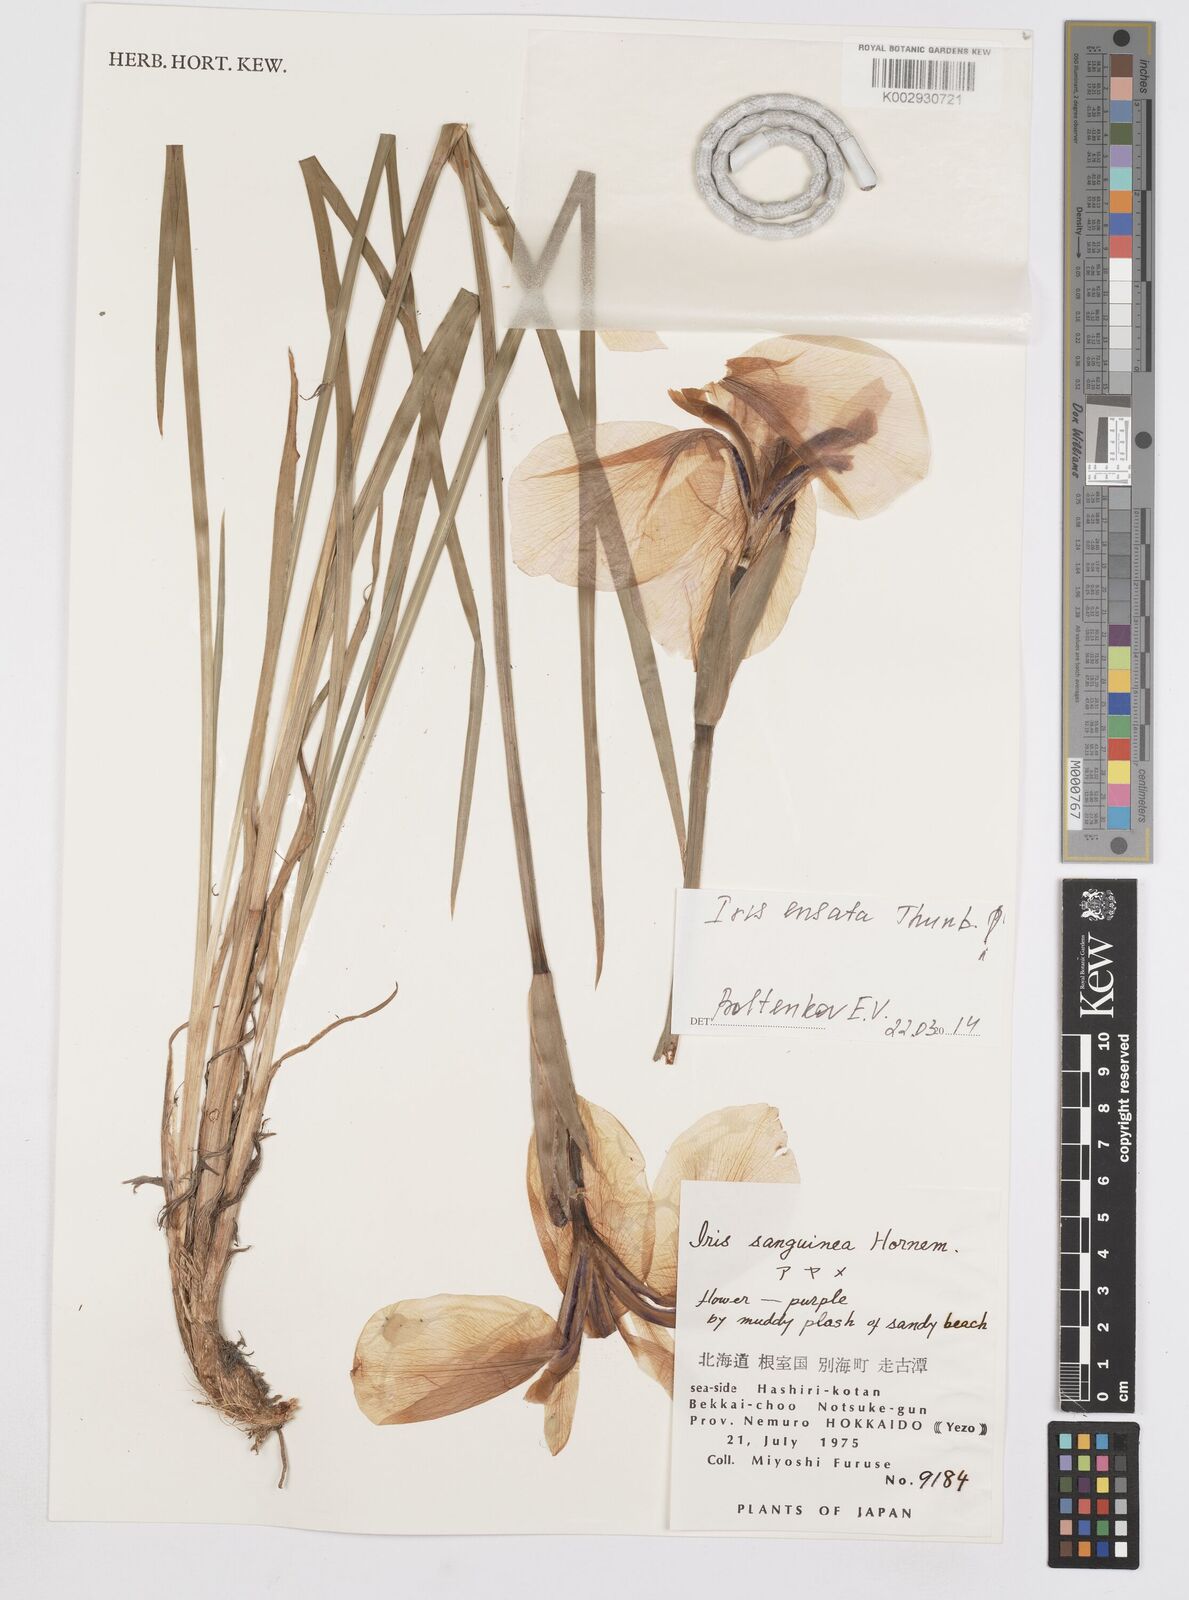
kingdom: Plantae
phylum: Tracheophyta
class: Liliopsida
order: Asparagales
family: Iridaceae
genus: Iris
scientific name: Iris ensata
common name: Beaked iris
